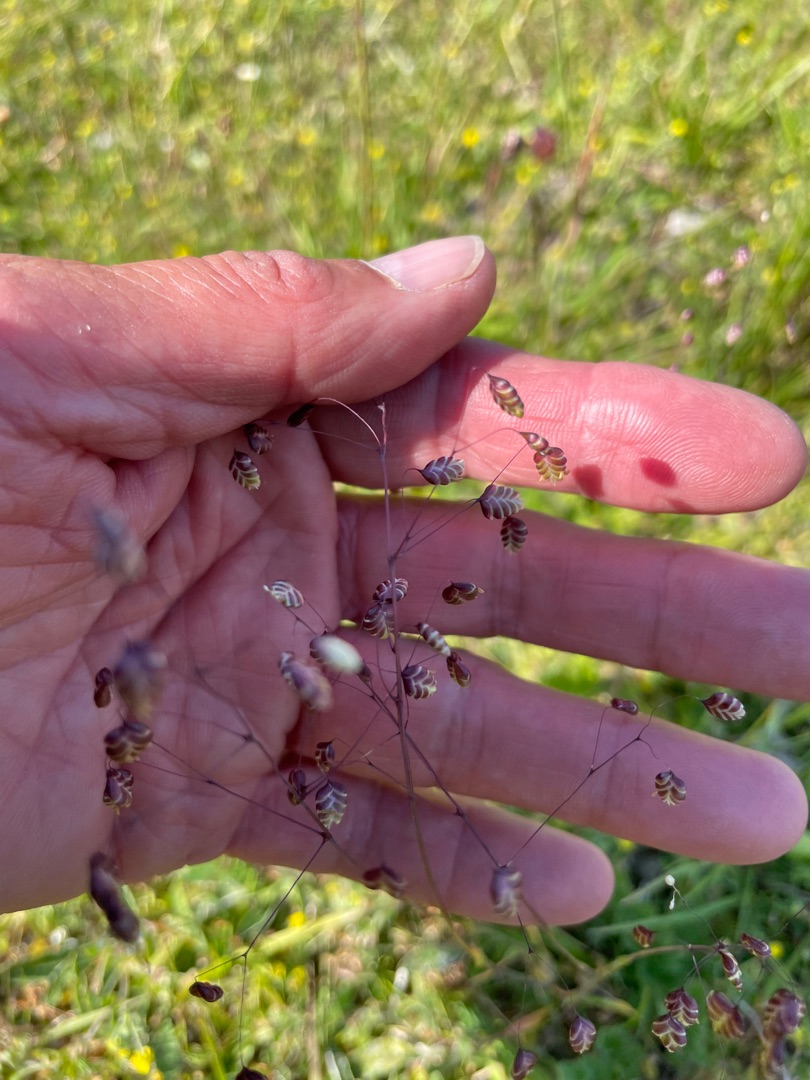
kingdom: Plantae
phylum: Tracheophyta
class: Liliopsida
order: Poales
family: Poaceae
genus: Briza
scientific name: Briza media
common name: Hjertegræs
